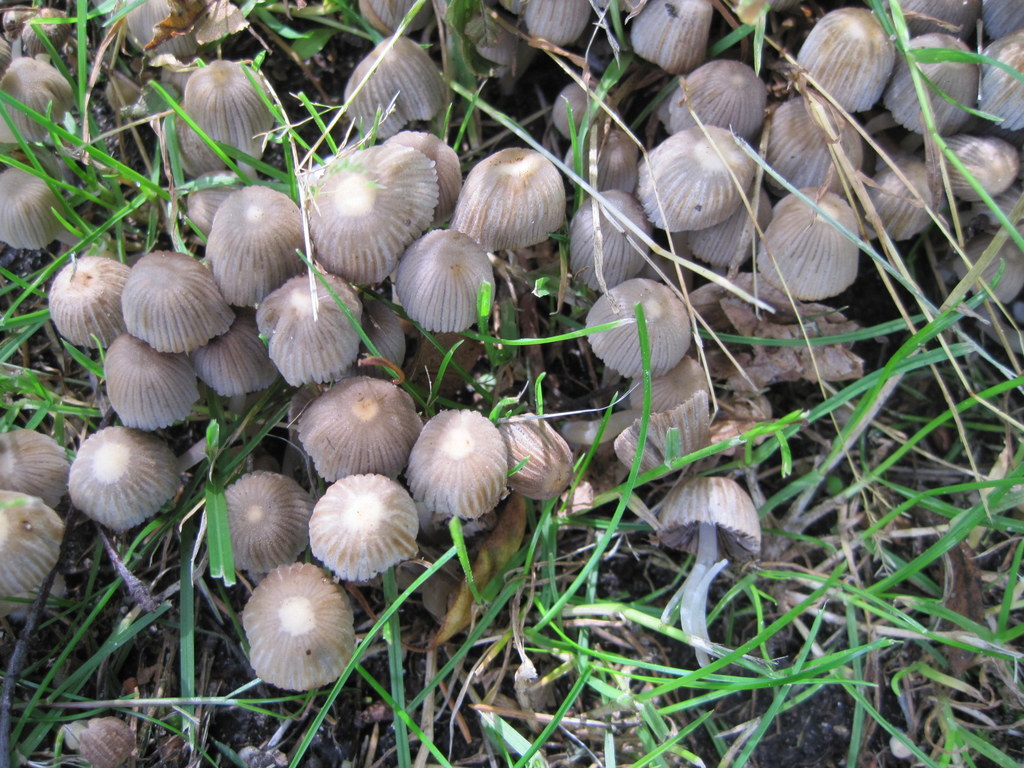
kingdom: Fungi
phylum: Basidiomycota
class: Agaricomycetes
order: Agaricales
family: Psathyrellaceae
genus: Coprinellus
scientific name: Coprinellus disseminatus
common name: bredsået blækhat
